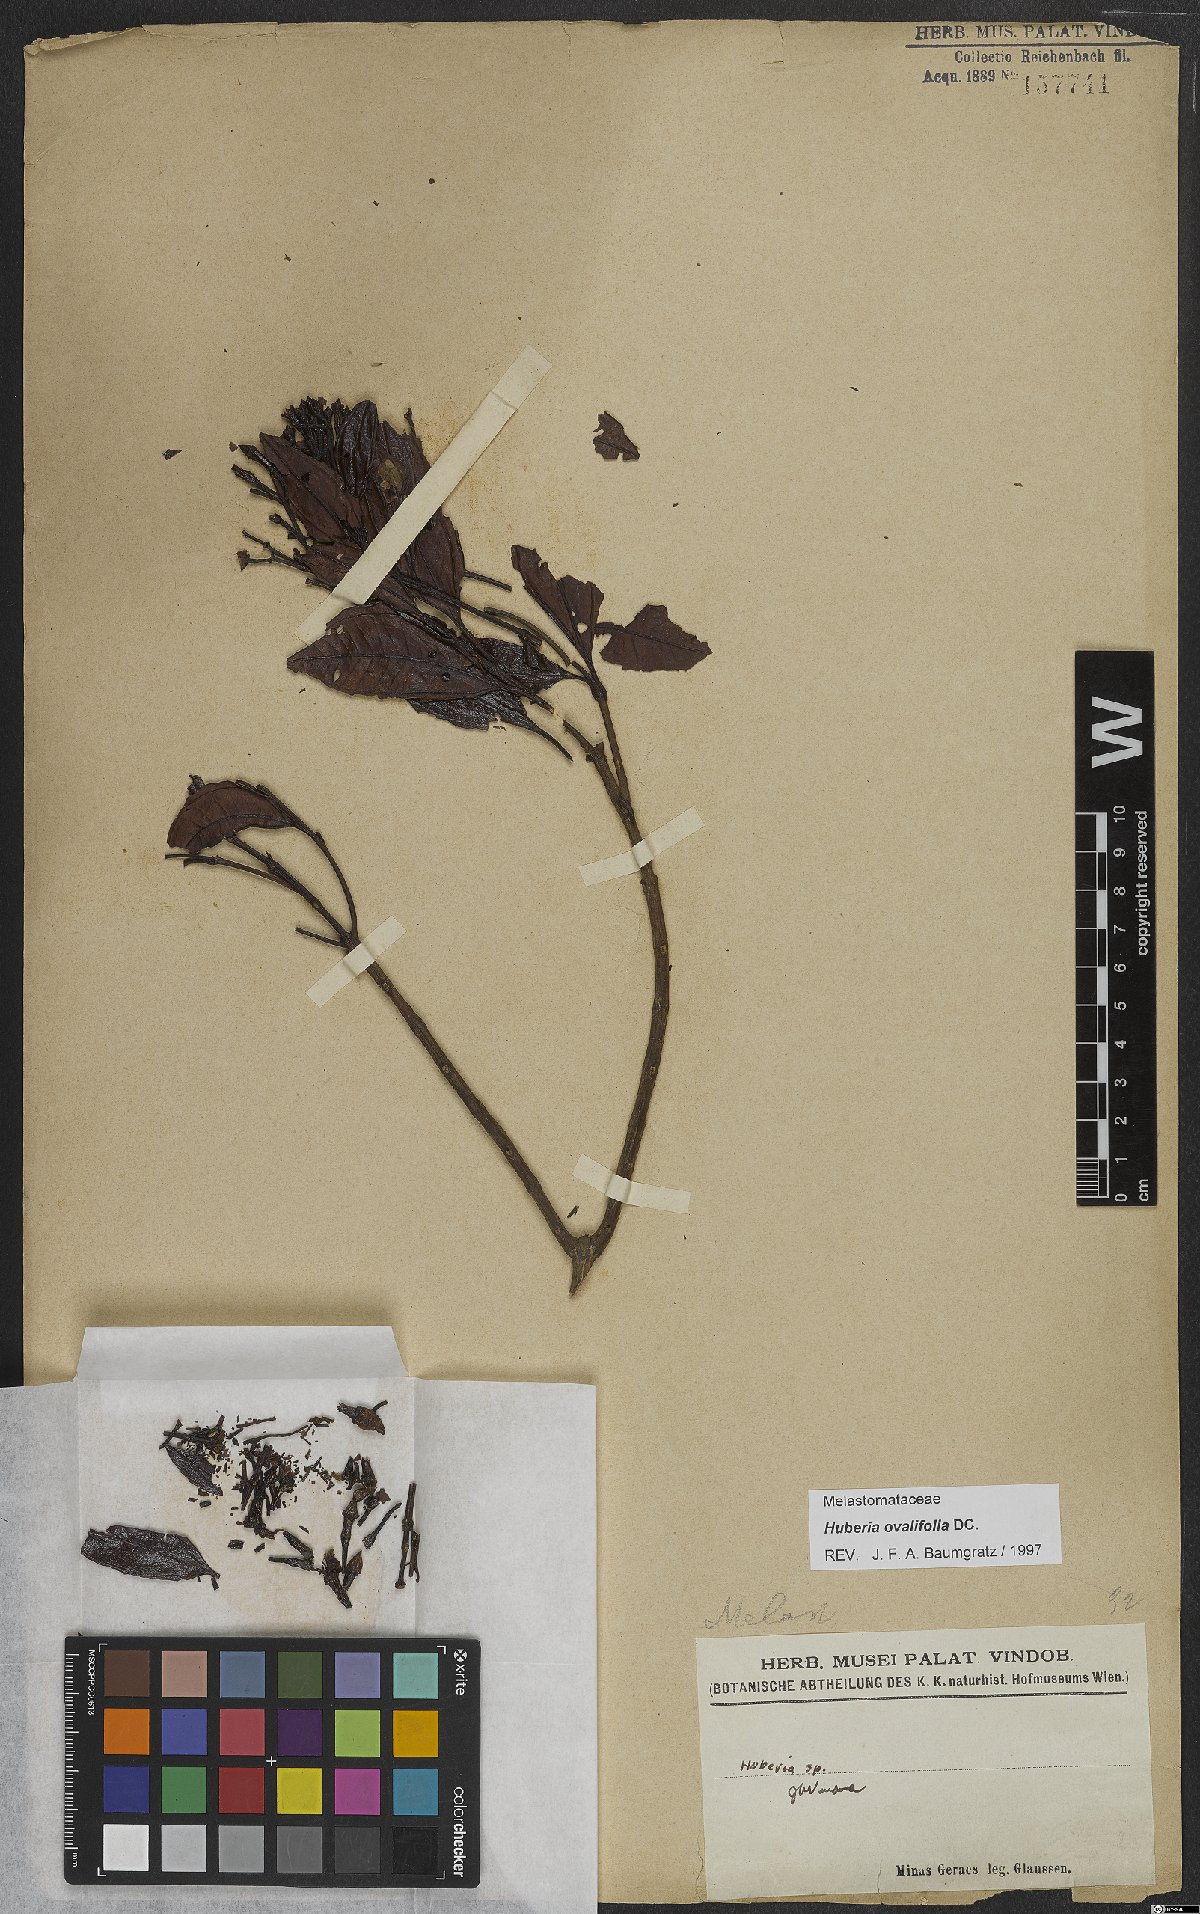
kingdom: Plantae
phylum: Tracheophyta
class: Magnoliopsida
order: Myrtales
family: Melastomataceae
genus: Huberia
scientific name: Huberia ovalifolia
